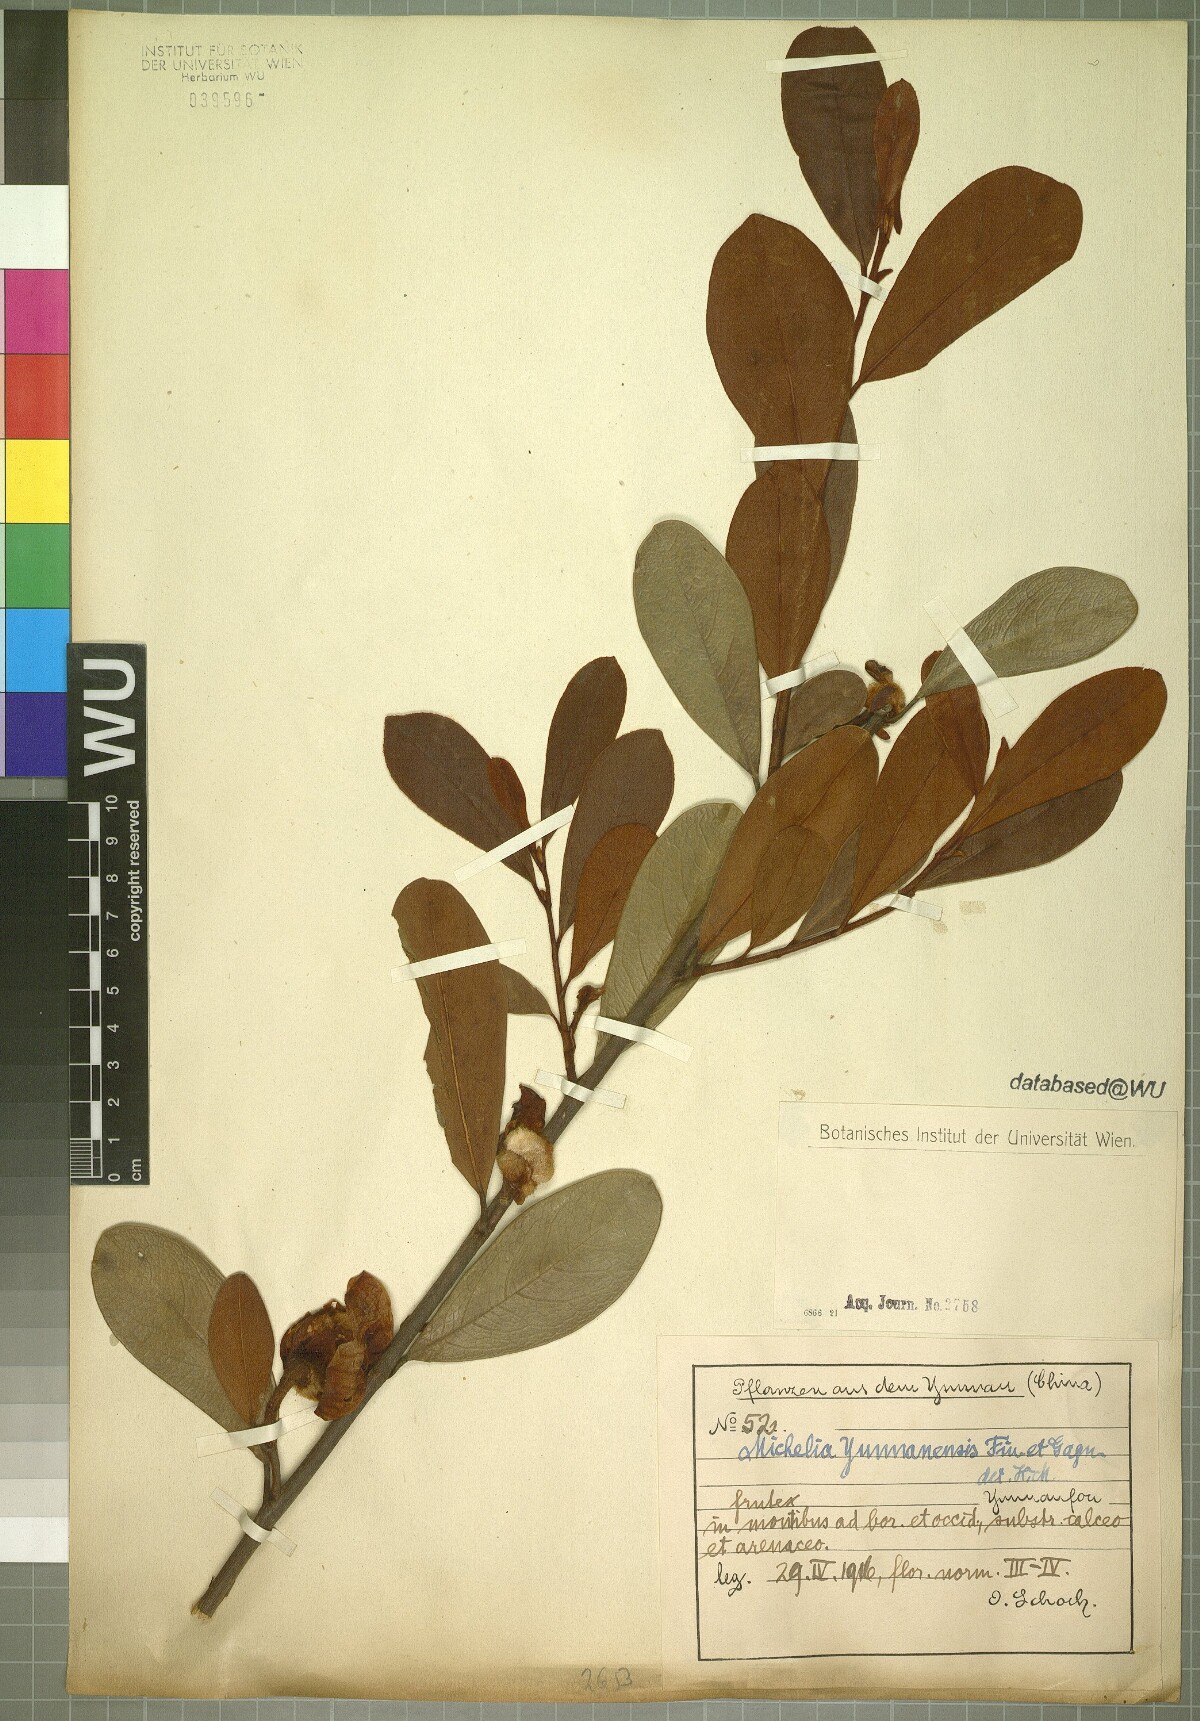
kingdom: Plantae
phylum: Tracheophyta
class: Magnoliopsida
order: Magnoliales
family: Magnoliaceae
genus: Magnolia
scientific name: Magnolia laevifolia
